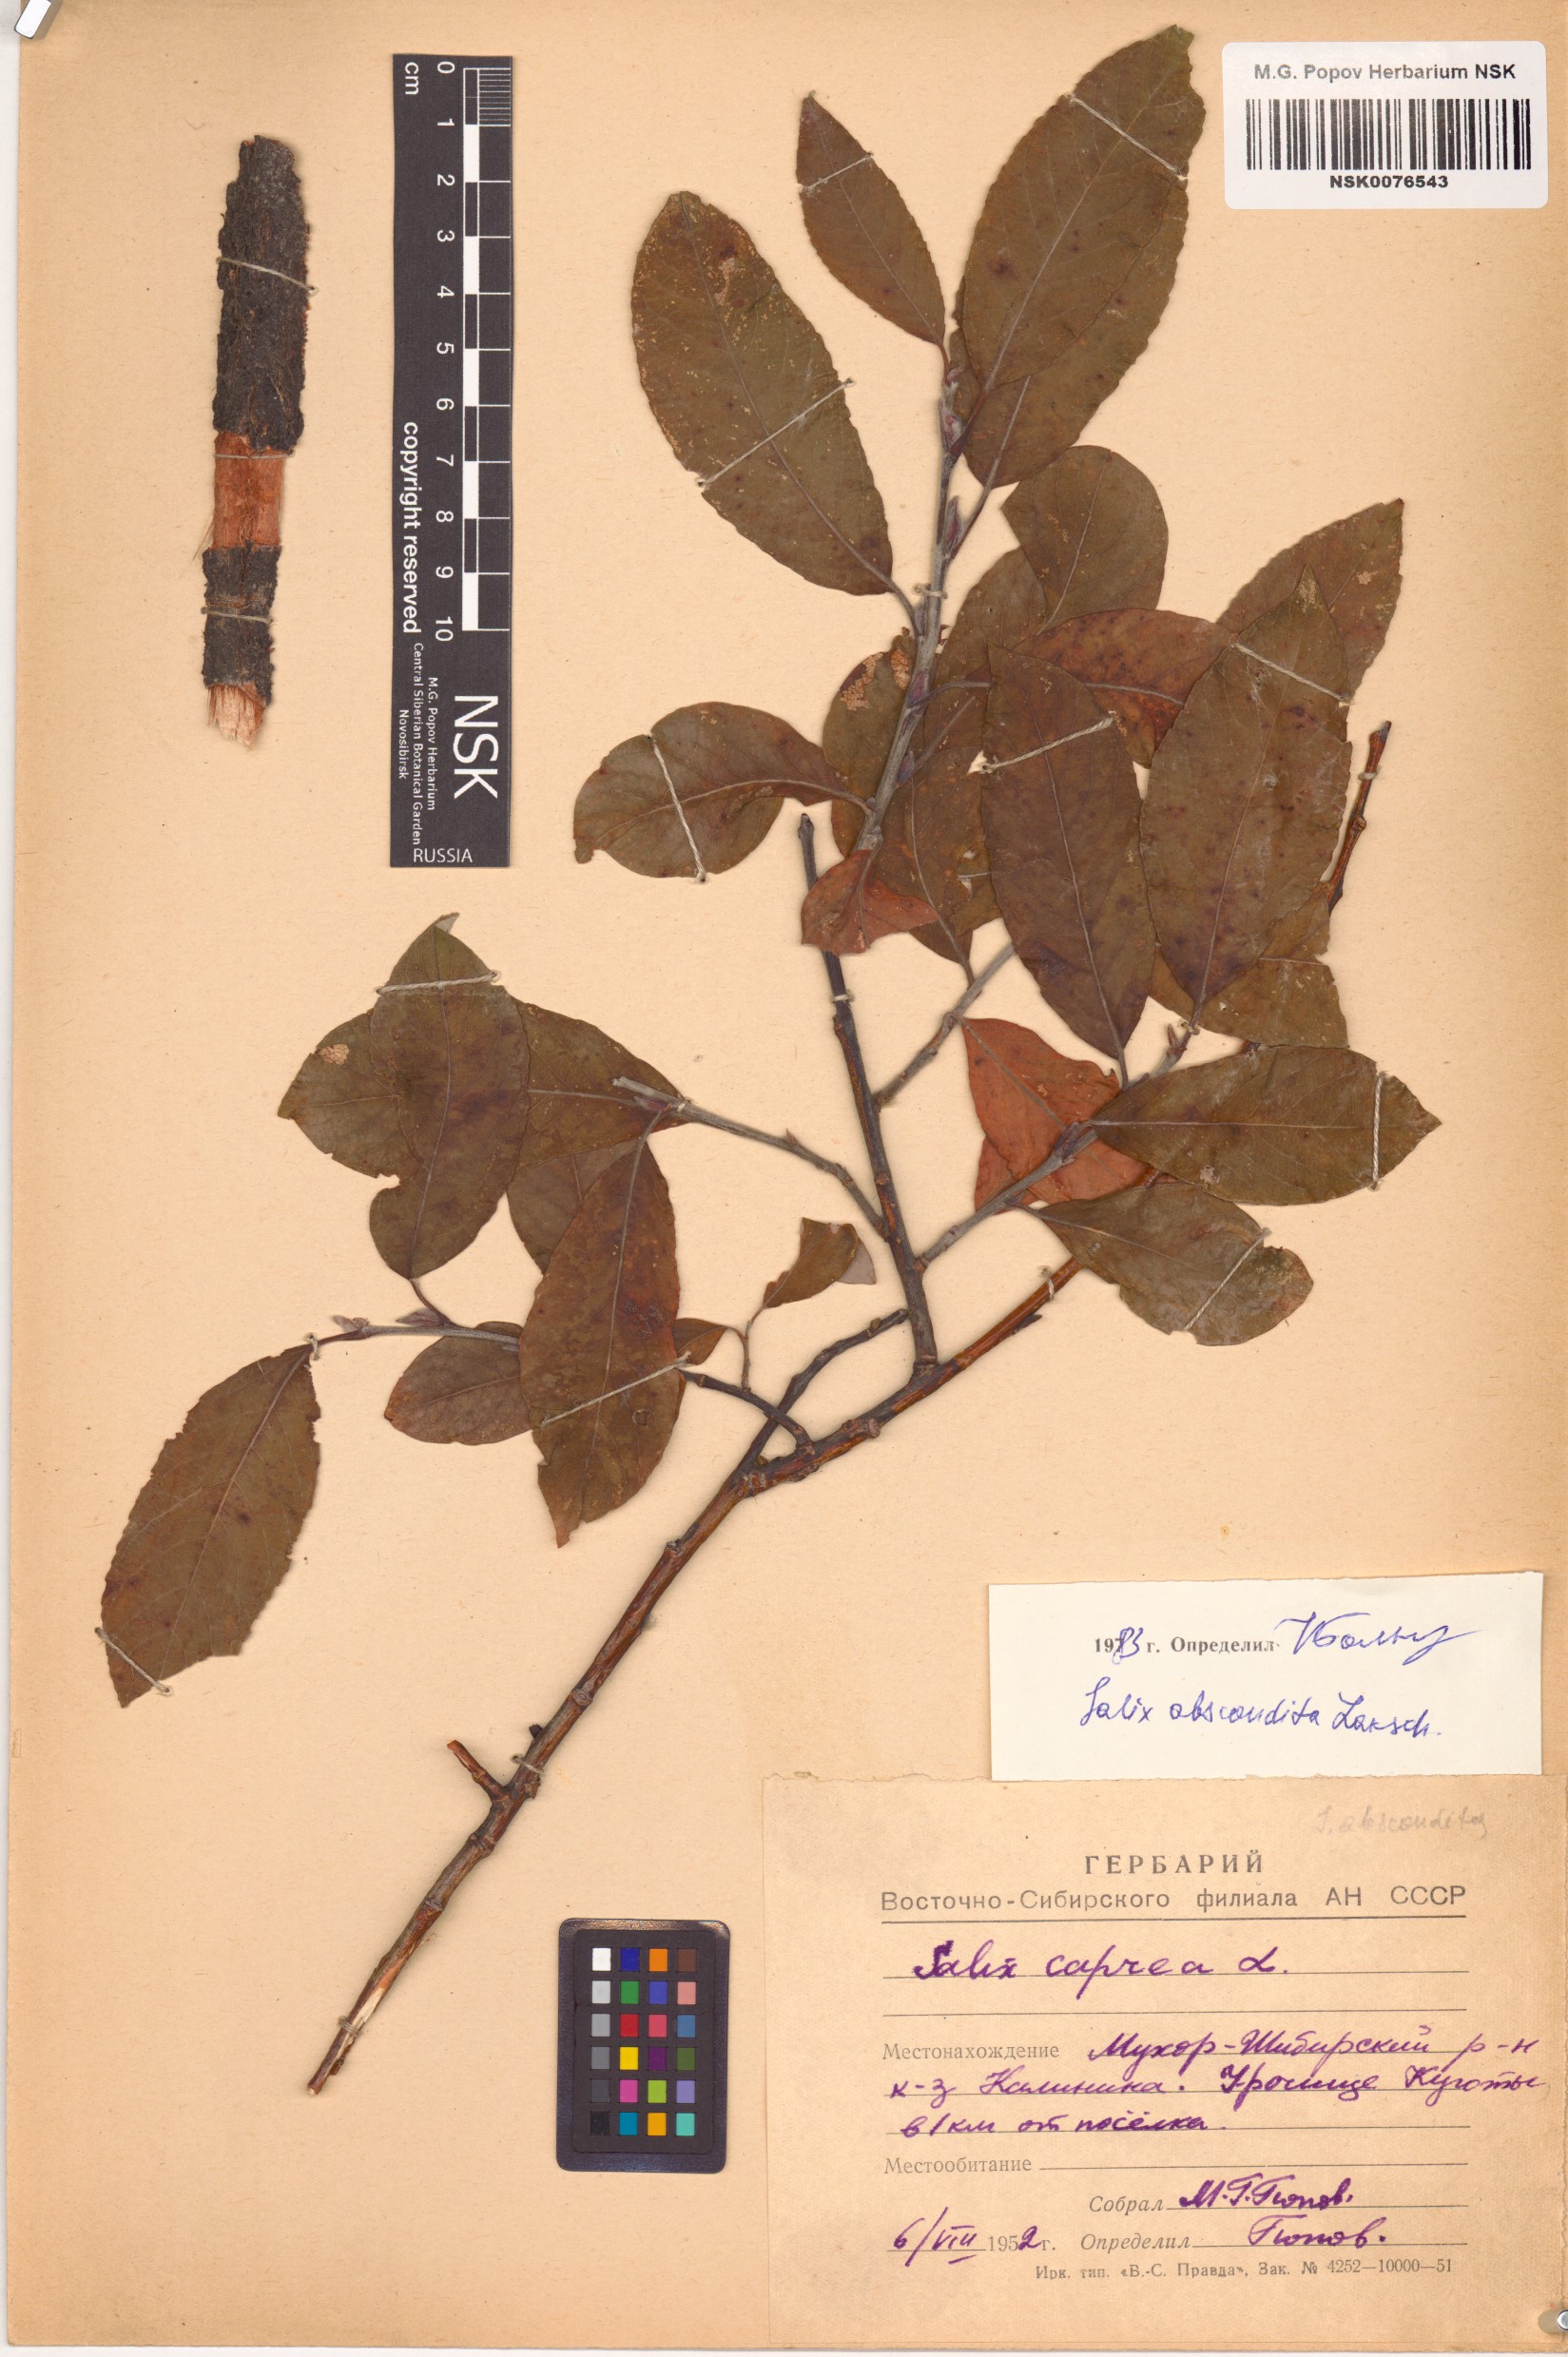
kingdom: Plantae
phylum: Tracheophyta
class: Magnoliopsida
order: Malpighiales
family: Salicaceae
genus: Salix
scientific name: Salix abscondita
